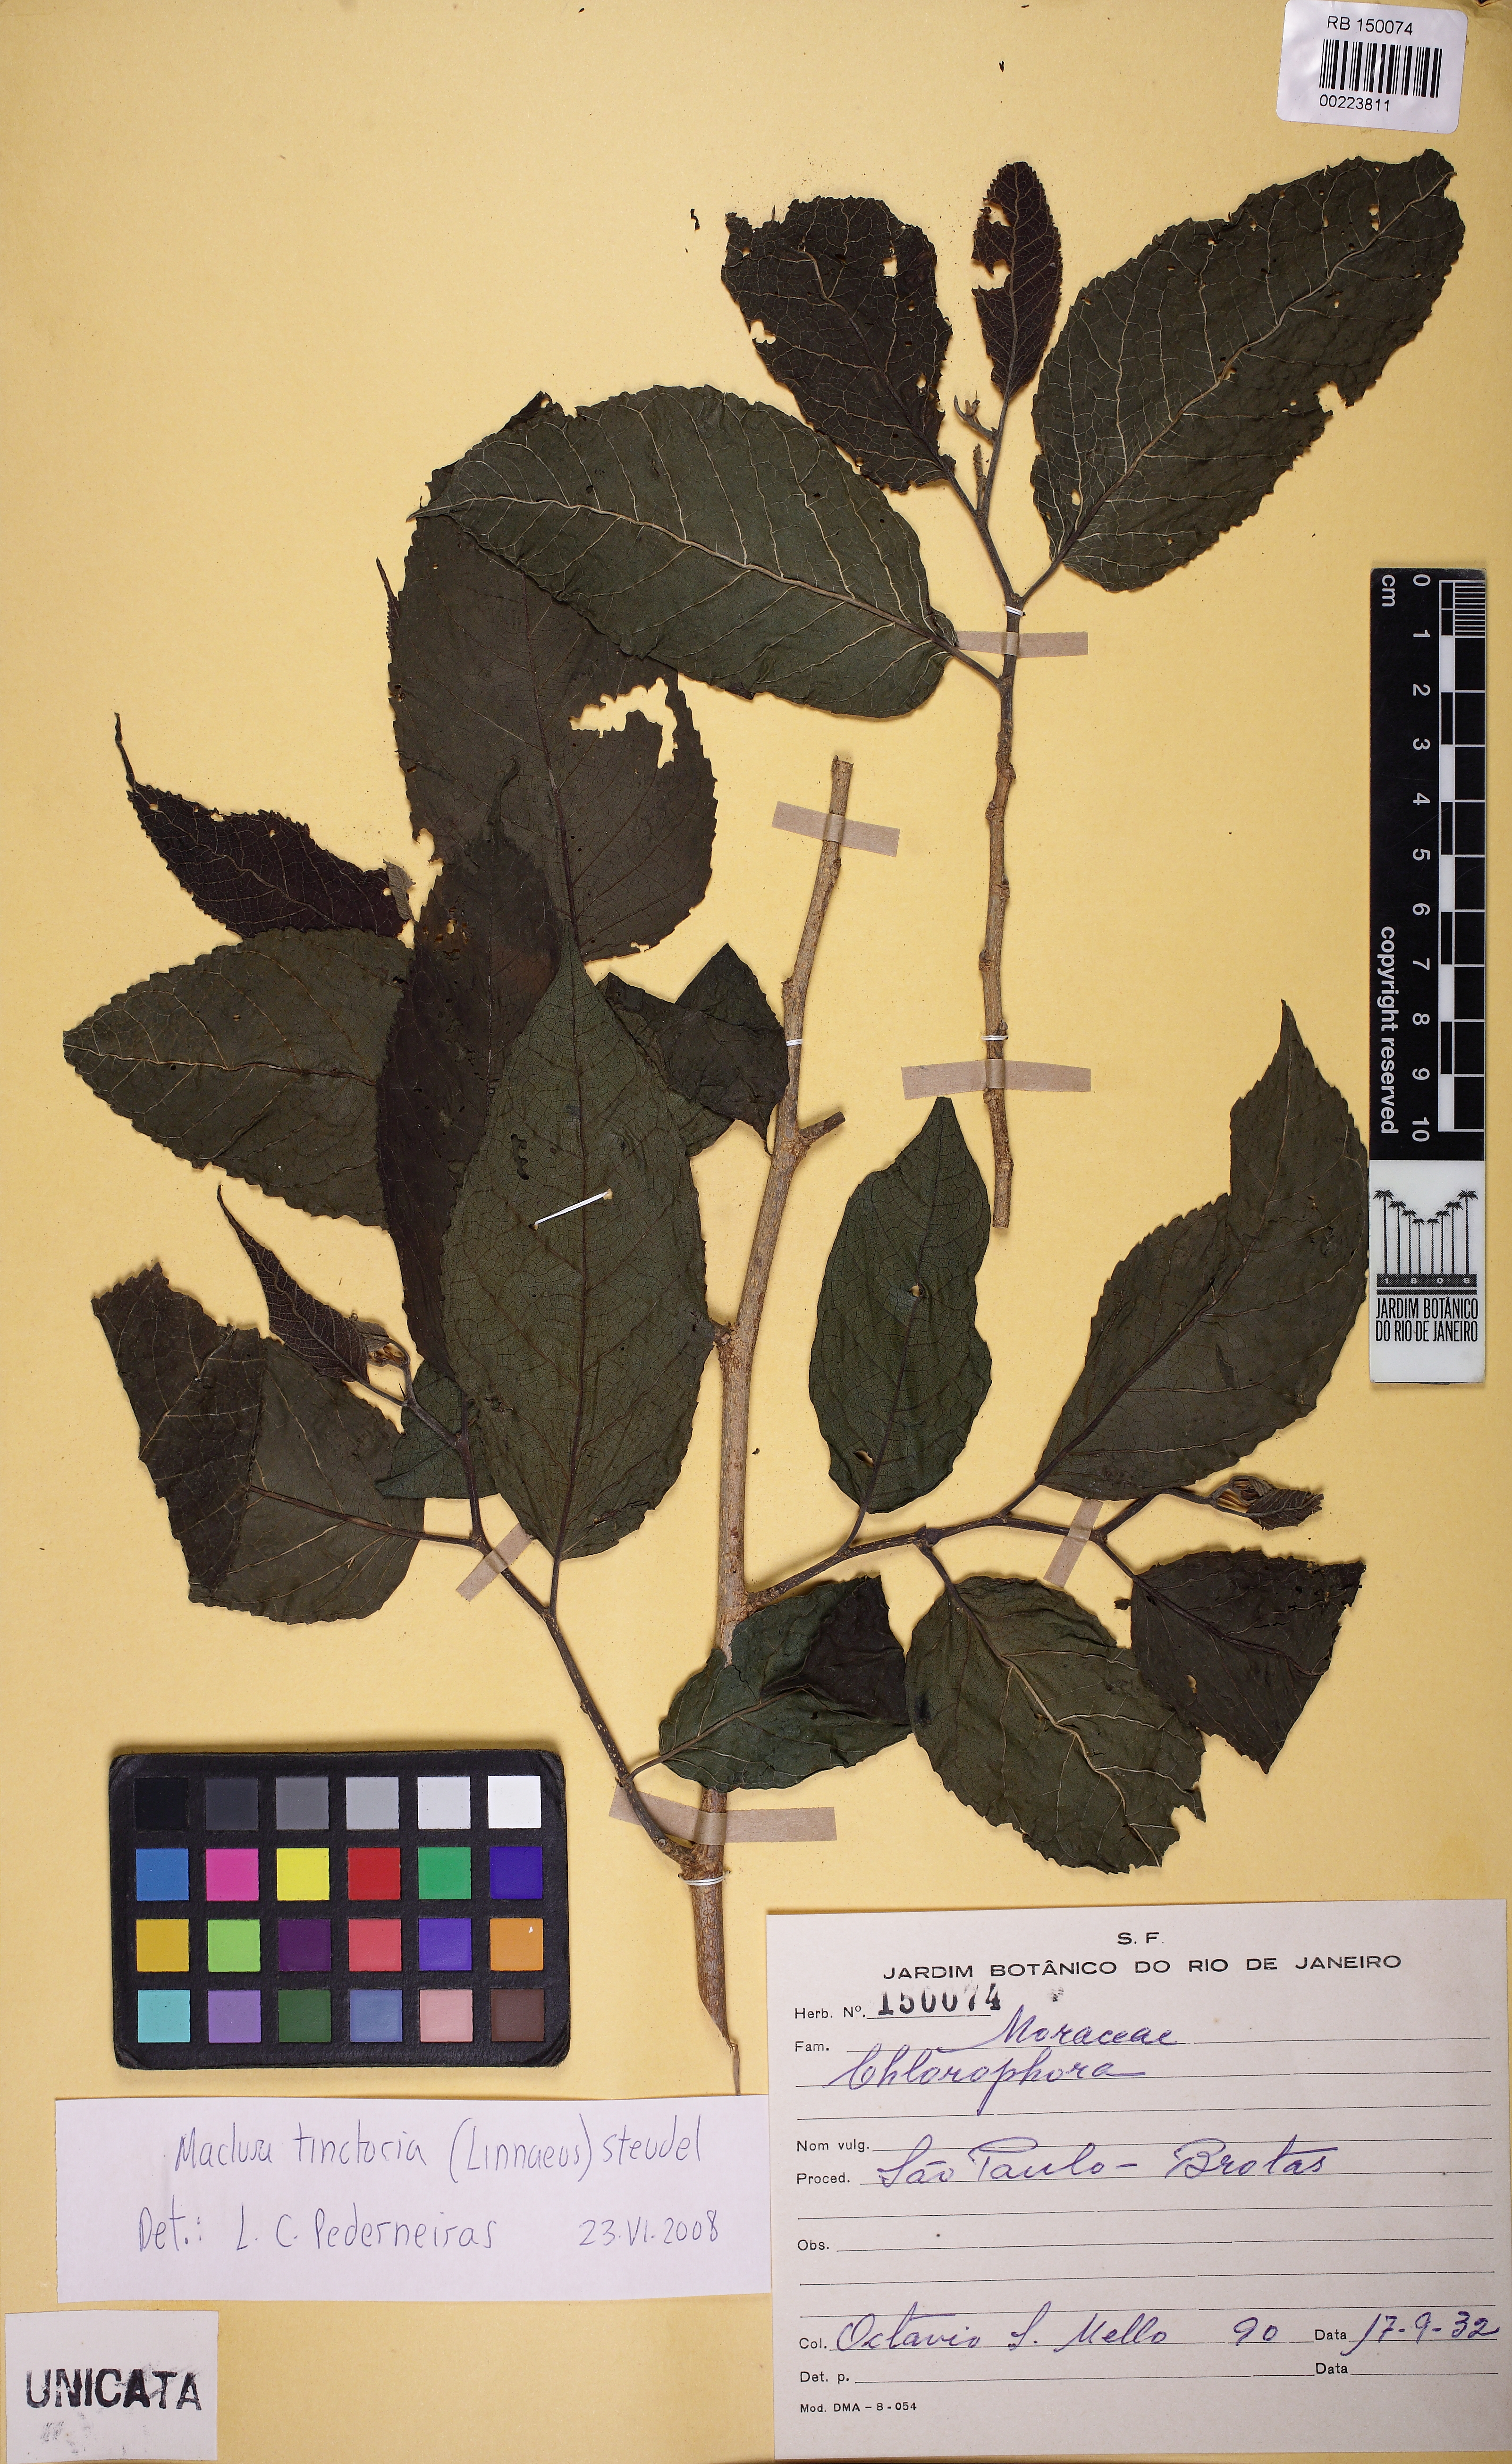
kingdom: Plantae
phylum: Tracheophyta
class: Magnoliopsida
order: Rosales
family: Moraceae
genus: Maclura
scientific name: Maclura
